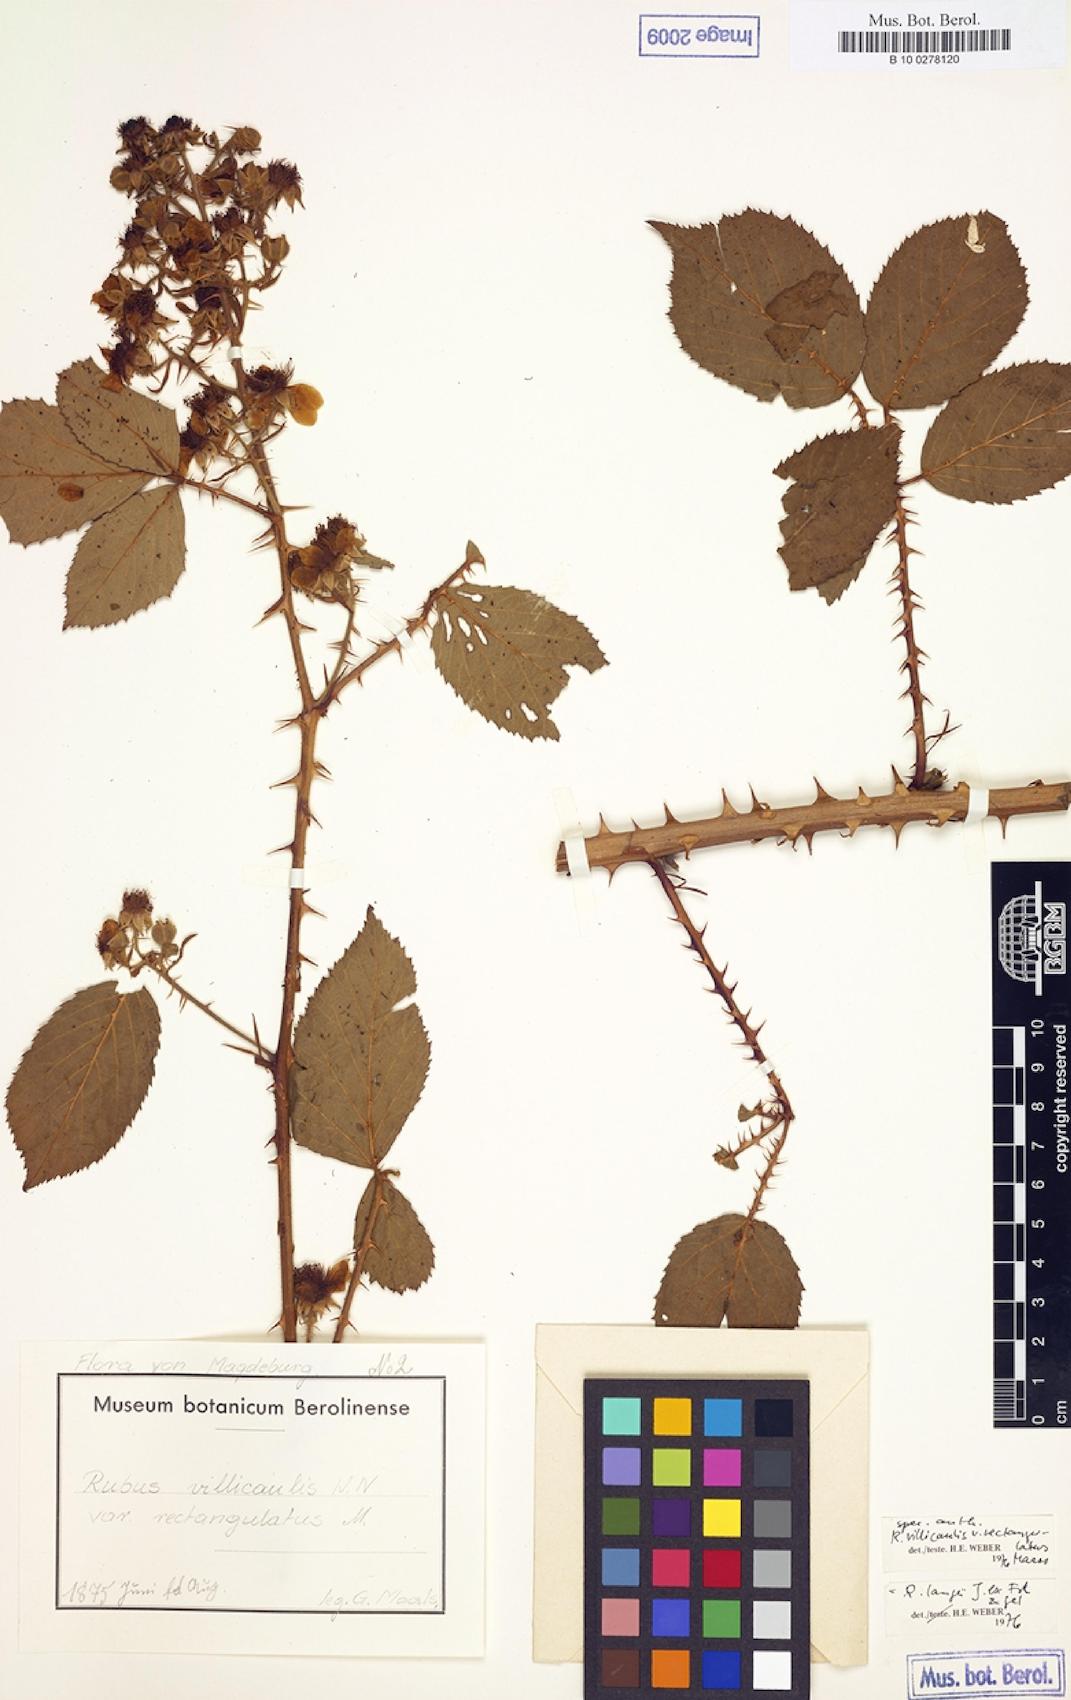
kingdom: Plantae
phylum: Tracheophyta
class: Magnoliopsida
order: Rosales
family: Rosaceae
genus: Rubus
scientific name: Rubus langei
